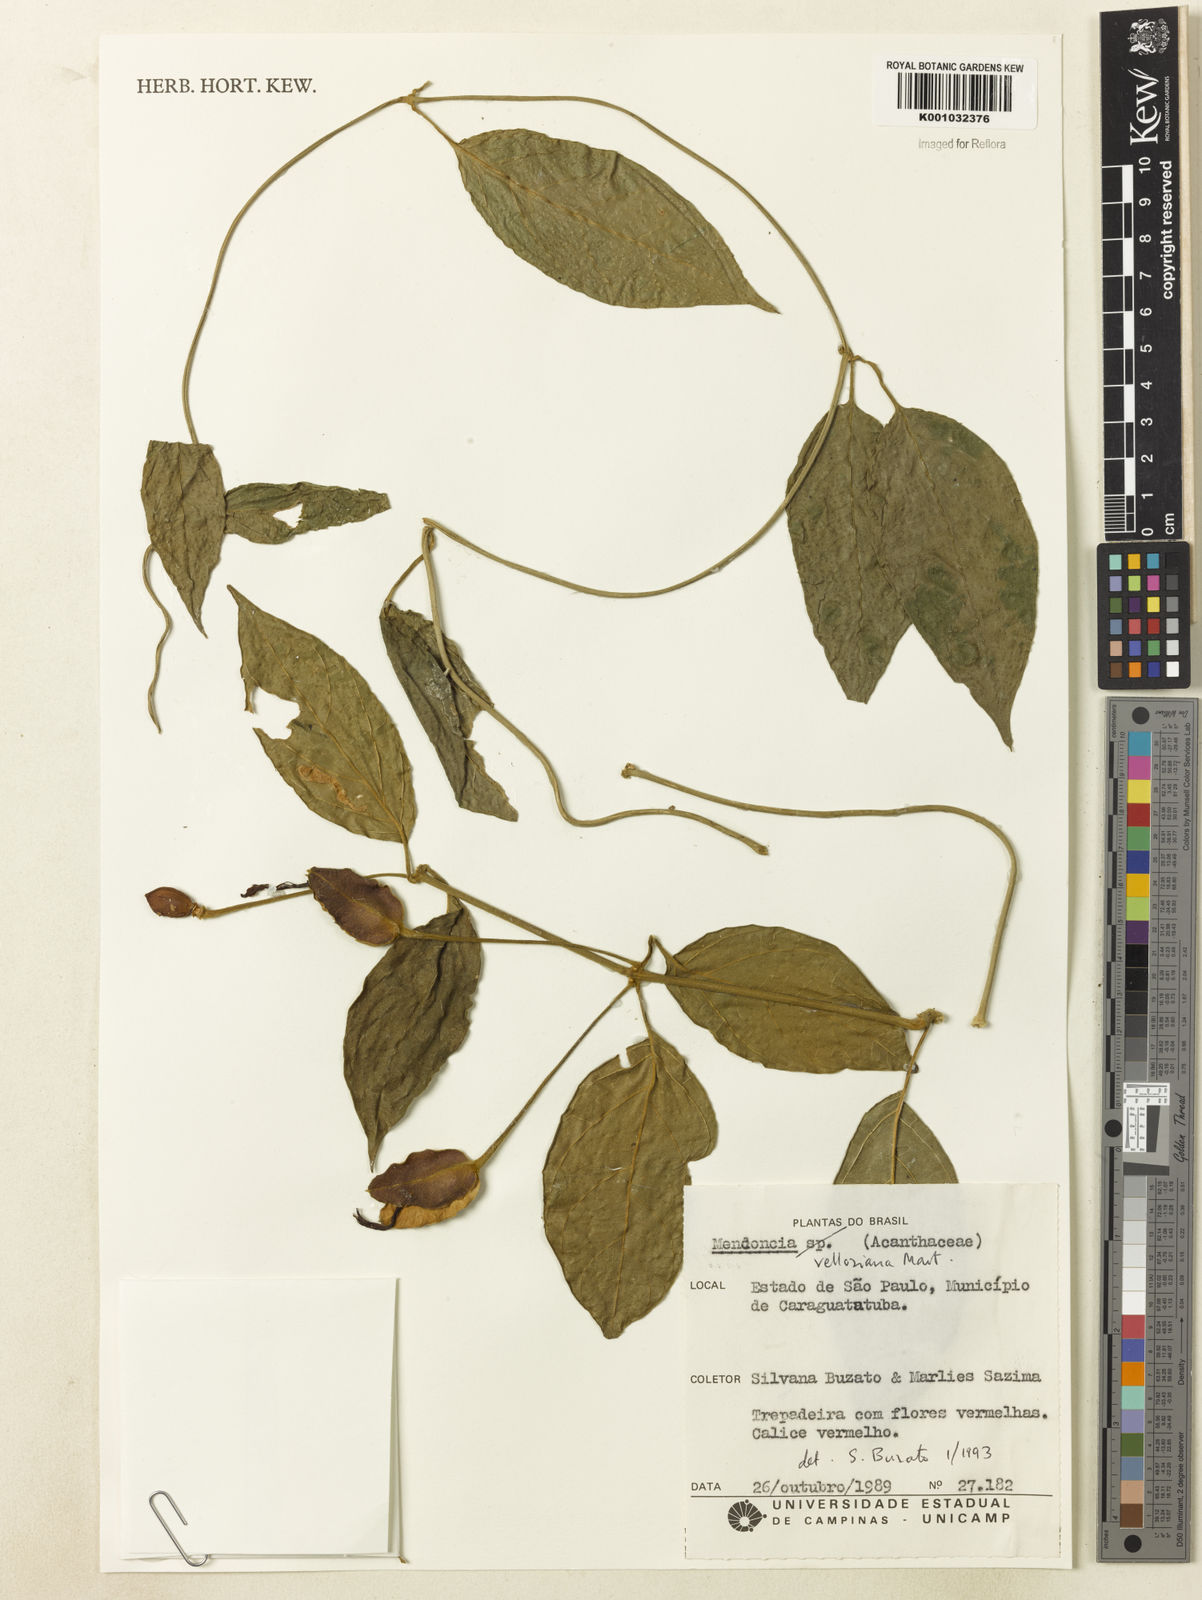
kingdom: Plantae
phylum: Tracheophyta
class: Magnoliopsida
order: Lamiales
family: Acanthaceae
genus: Mendoncia
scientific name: Mendoncia velloziana
